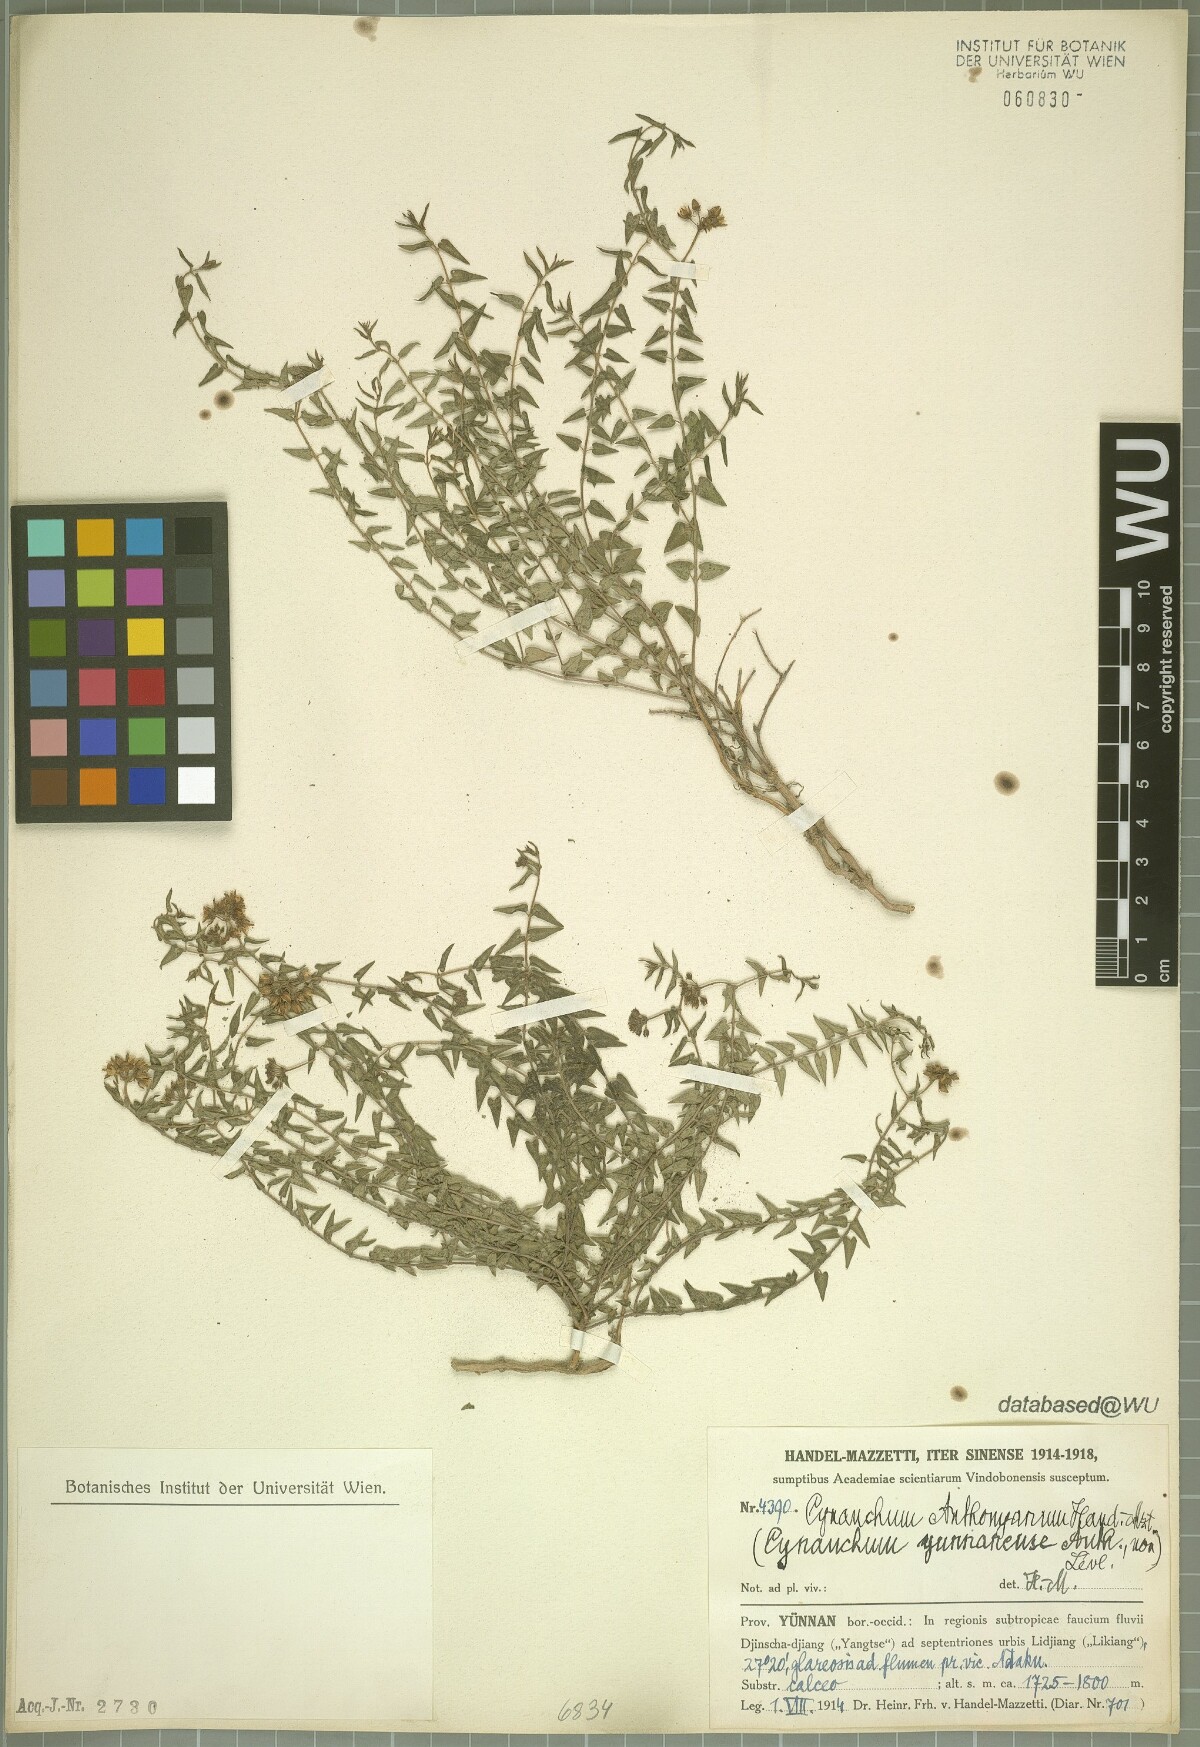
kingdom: Plantae
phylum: Tracheophyta
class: Magnoliopsida
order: Gentianales
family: Apocynaceae
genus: Cynanchum
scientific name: Cynanchum anthonyanum
